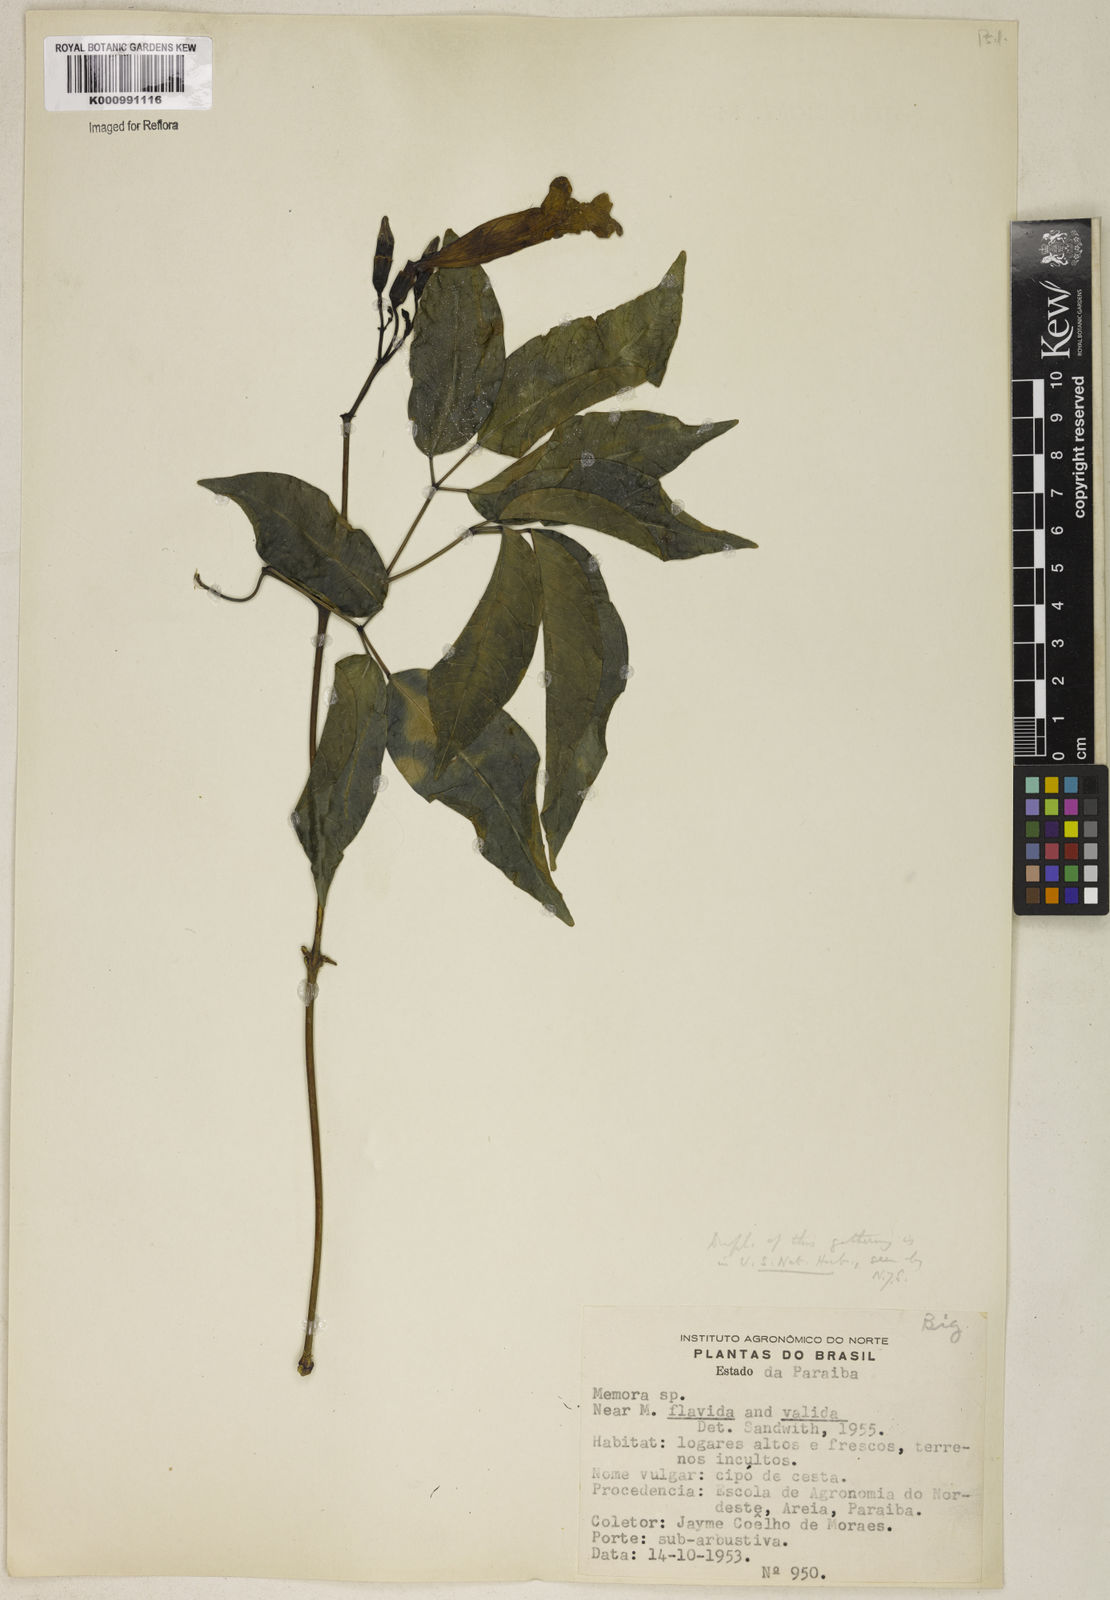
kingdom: Plantae
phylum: Tracheophyta
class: Magnoliopsida
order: Lamiales
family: Bignoniaceae
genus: Adenocalymma
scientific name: Adenocalymma
